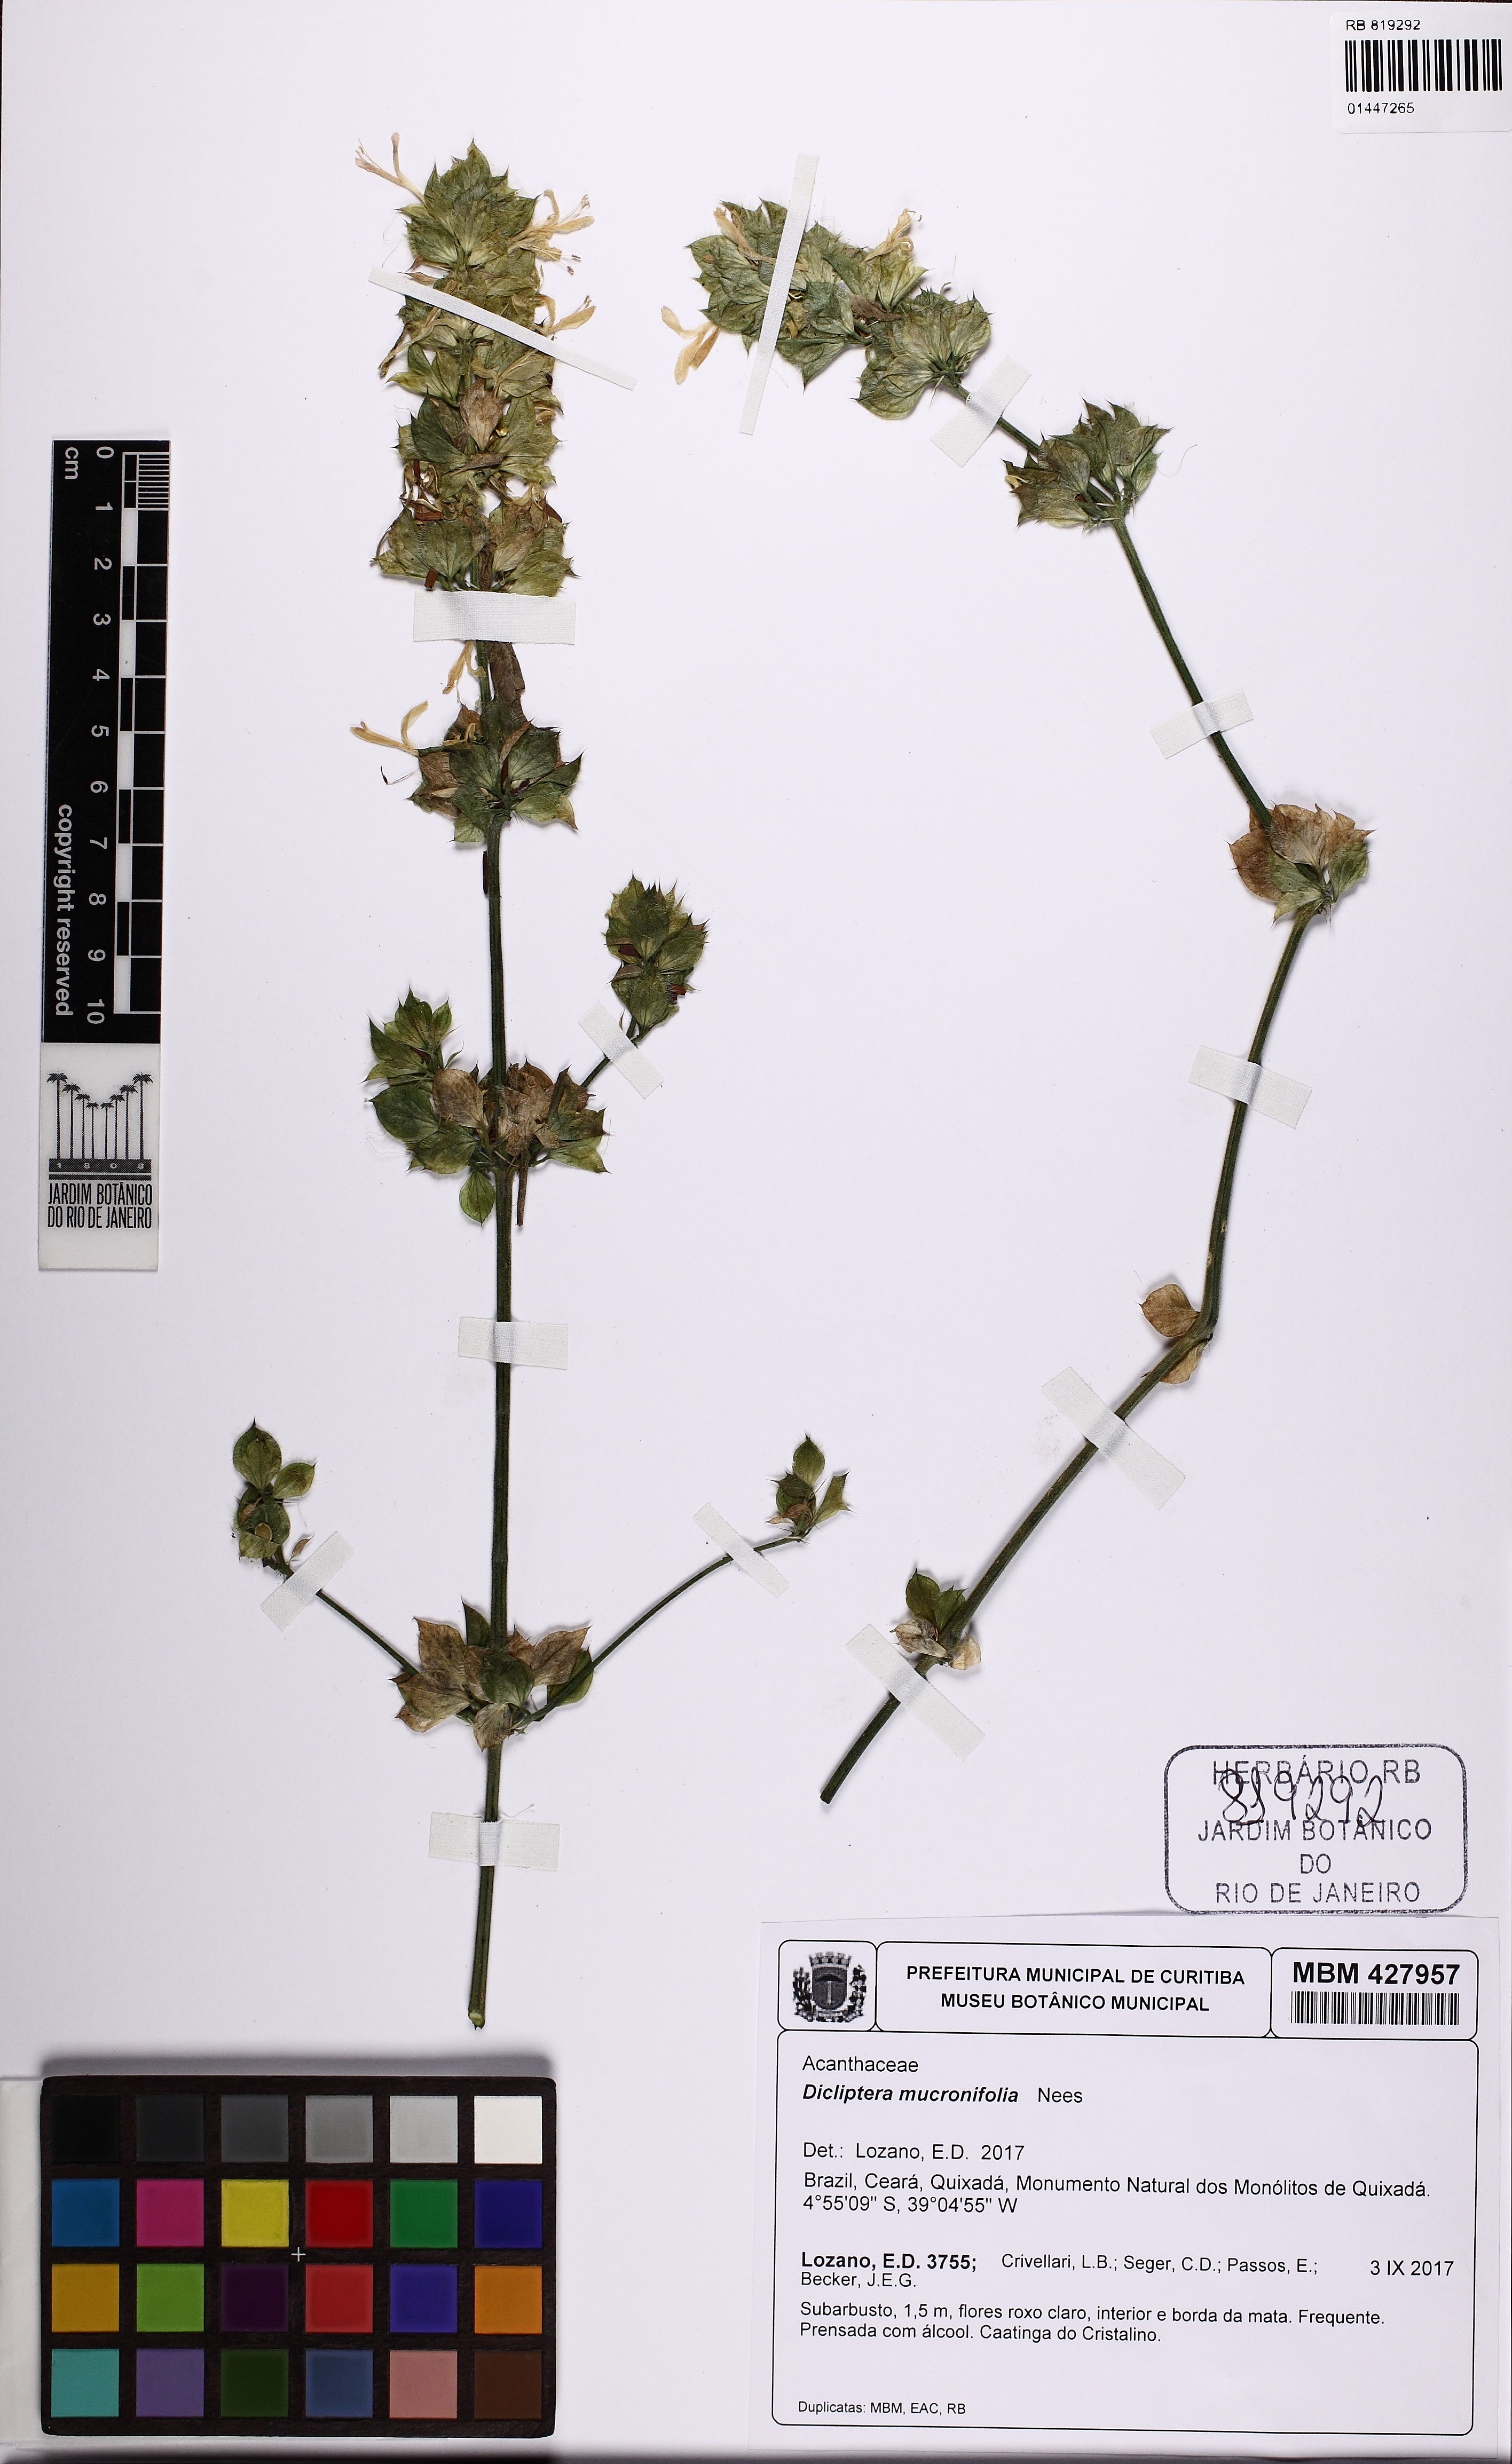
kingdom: Plantae
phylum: Tracheophyta
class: Magnoliopsida
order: Lamiales
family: Acanthaceae
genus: Dicliptera
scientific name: Dicliptera ciliaris
